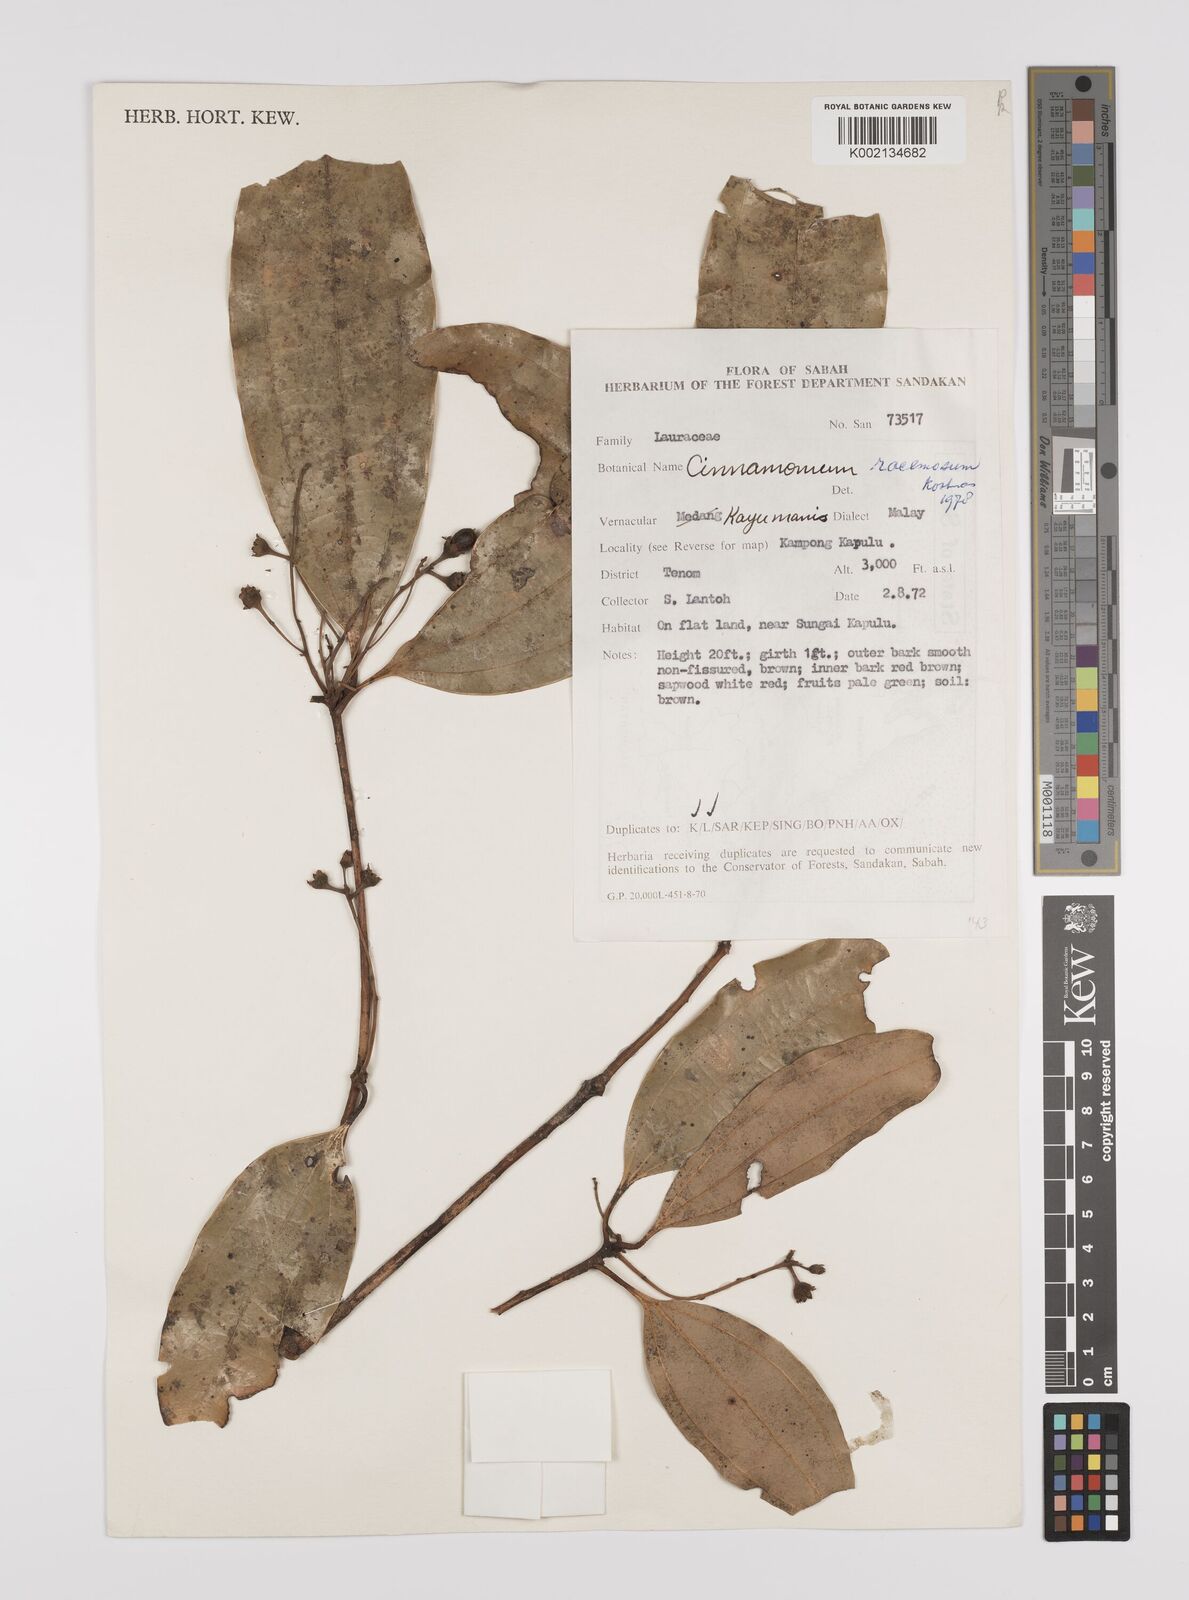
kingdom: Plantae
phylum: Tracheophyta
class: Magnoliopsida
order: Laurales
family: Lauraceae
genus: Cinnamomum
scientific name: Cinnamomum racemosum
